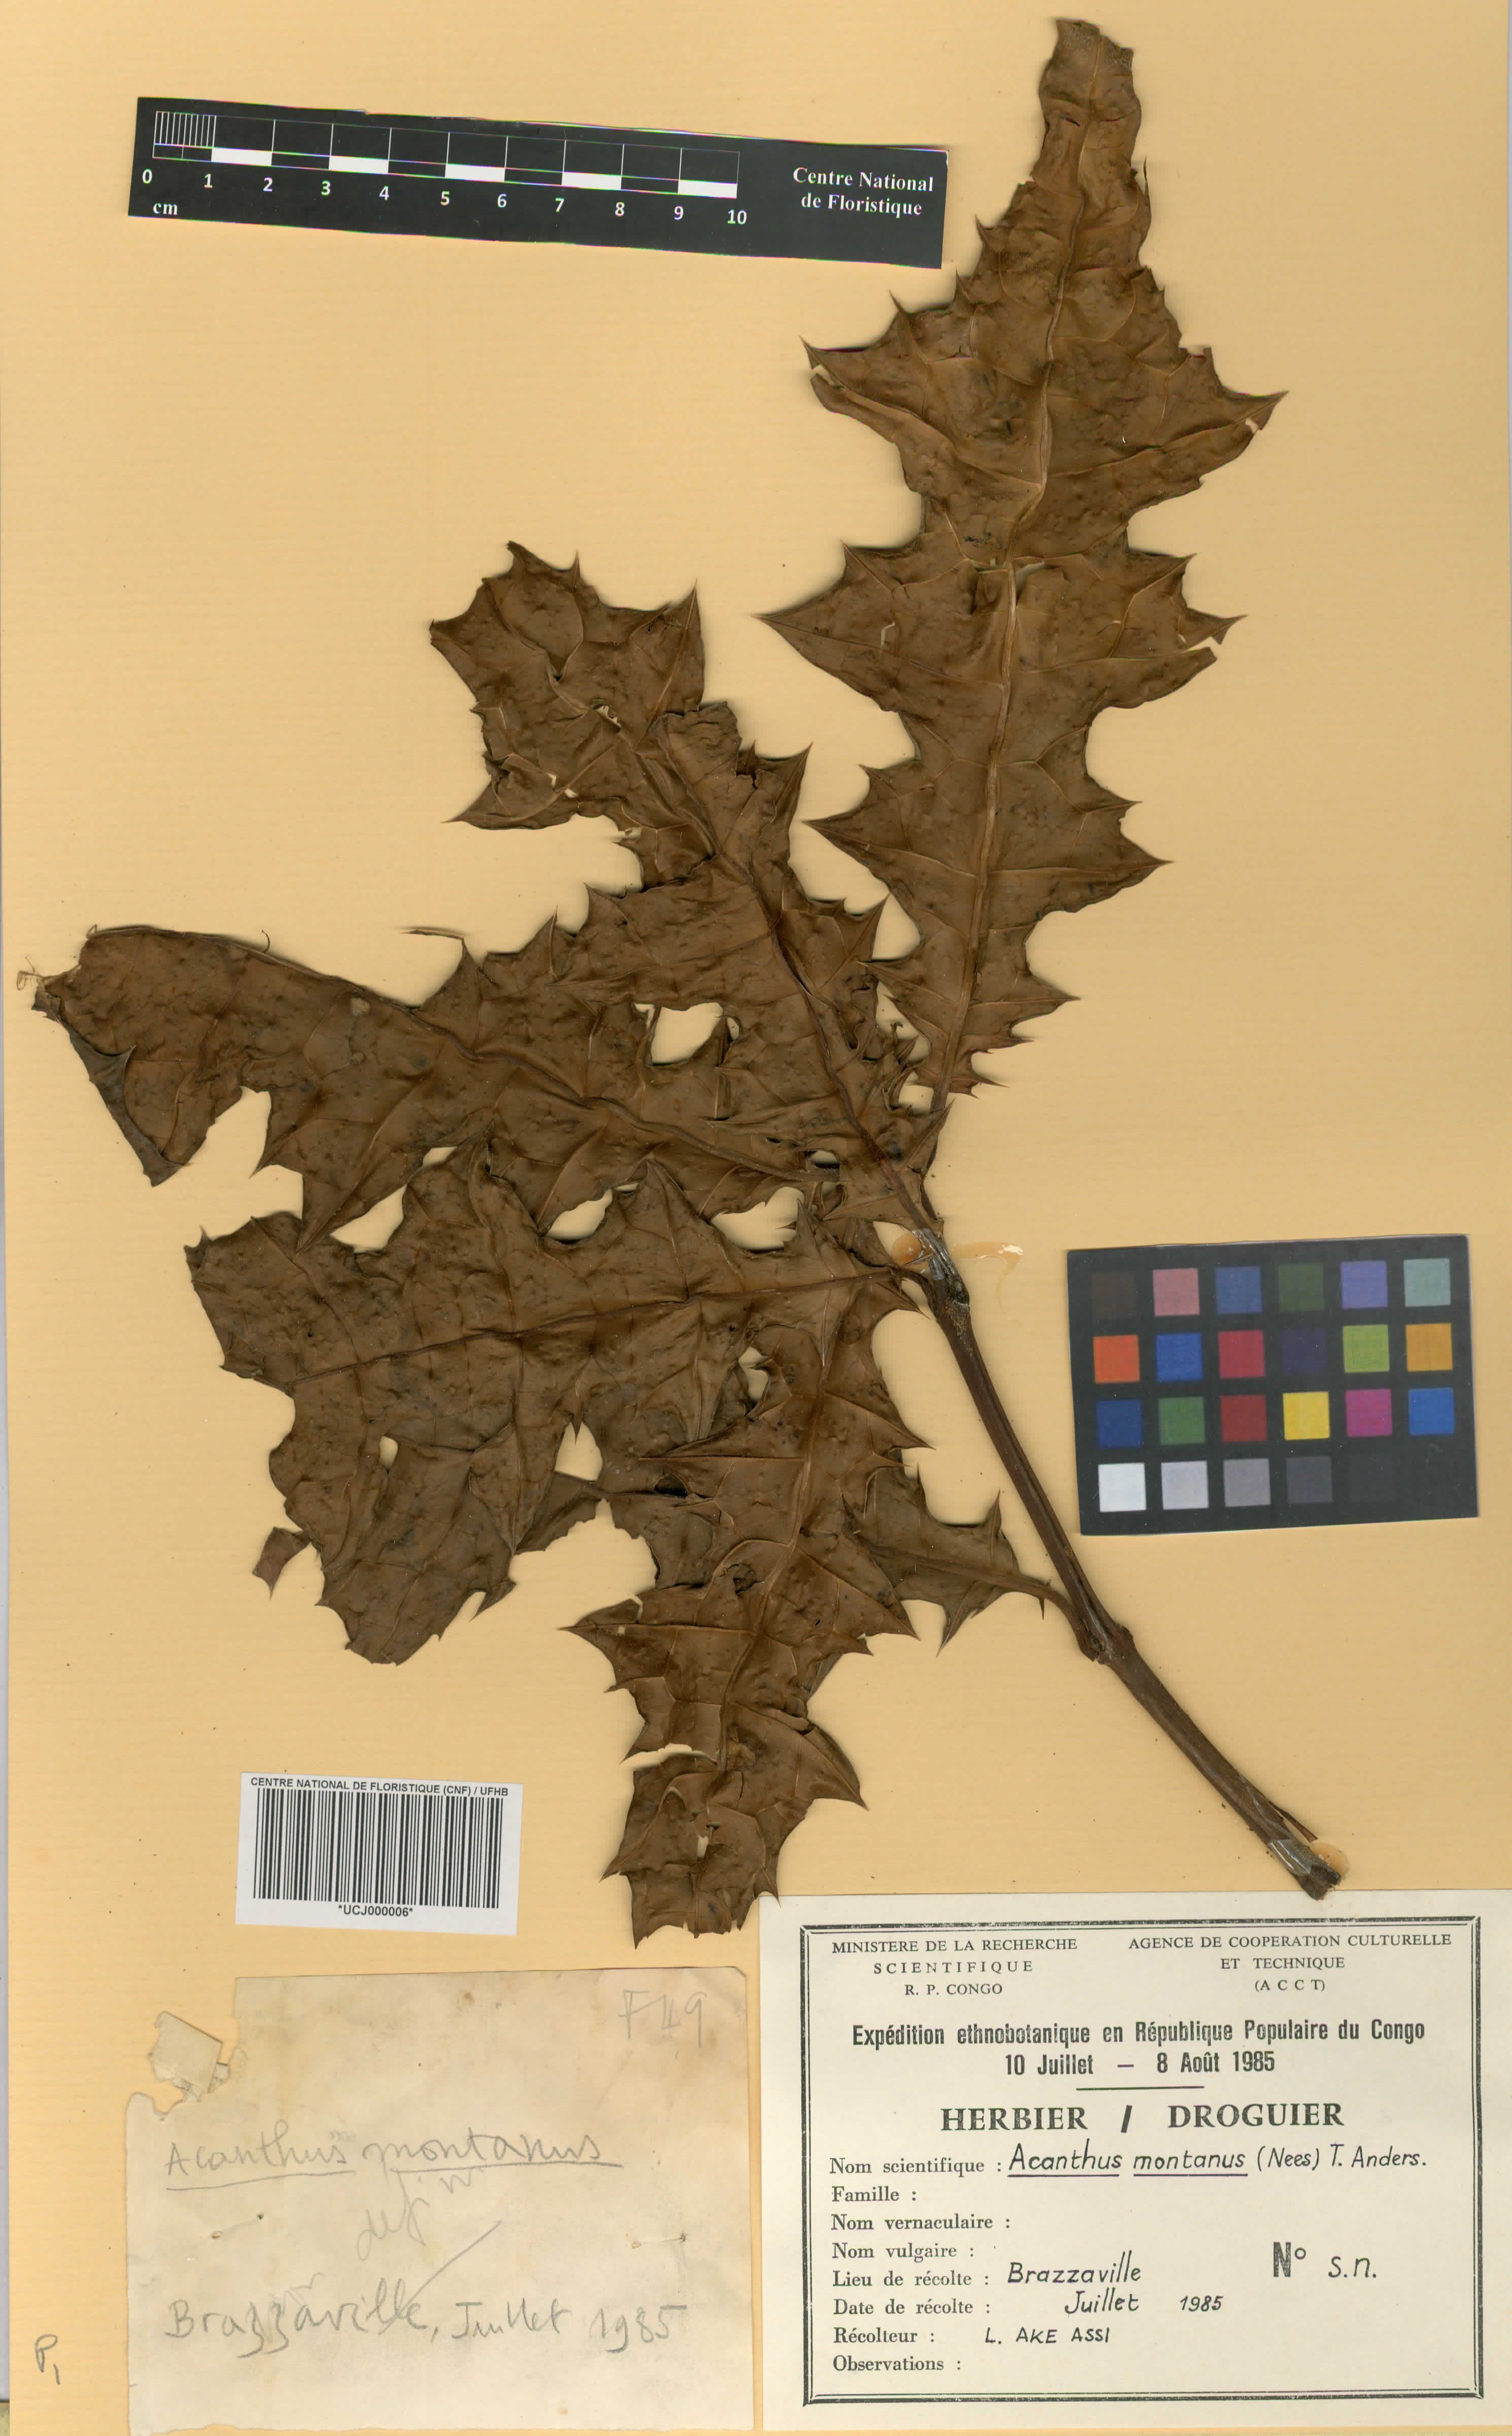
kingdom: Plantae
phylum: Tracheophyta
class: Magnoliopsida
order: Lamiales
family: Acanthaceae
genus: Acanthus
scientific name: Acanthus montanus
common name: Mountain thistle
